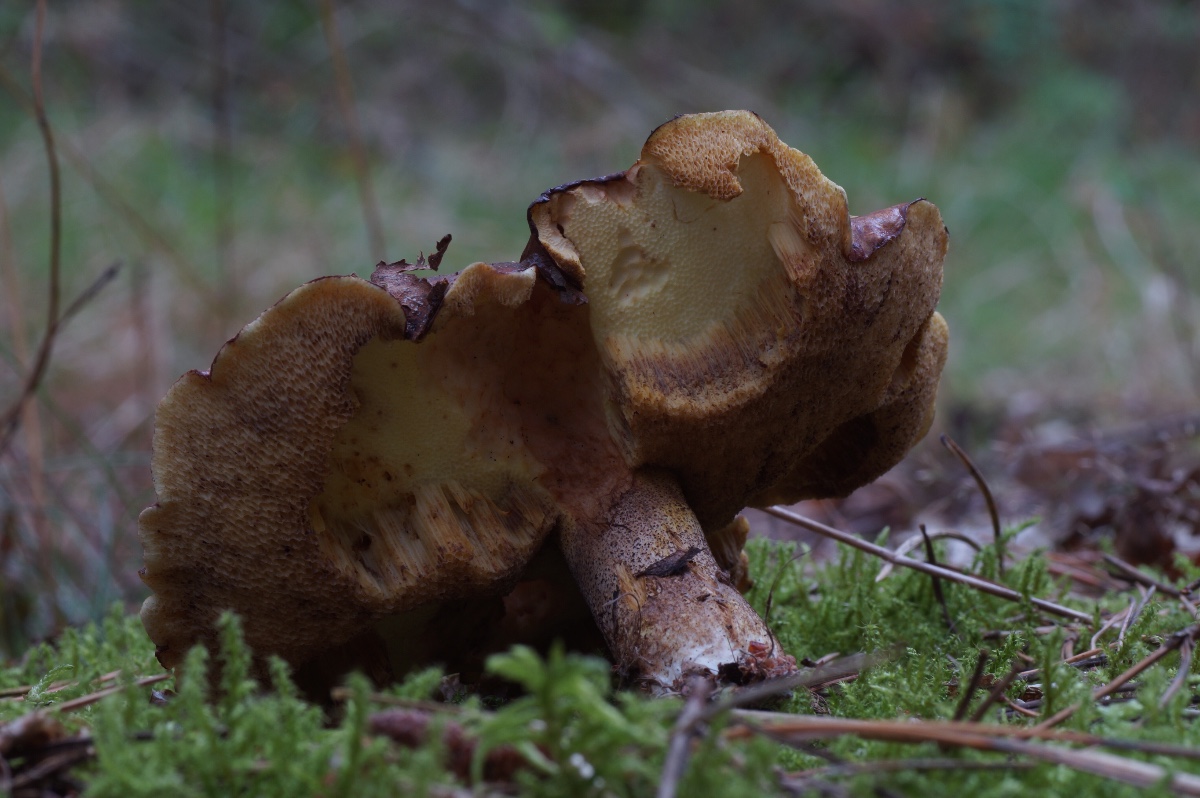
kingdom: Fungi
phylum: Basidiomycota
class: Agaricomycetes
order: Boletales
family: Suillaceae
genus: Suillus
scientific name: Suillus collinitus
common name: rosafodet slimrørhat
